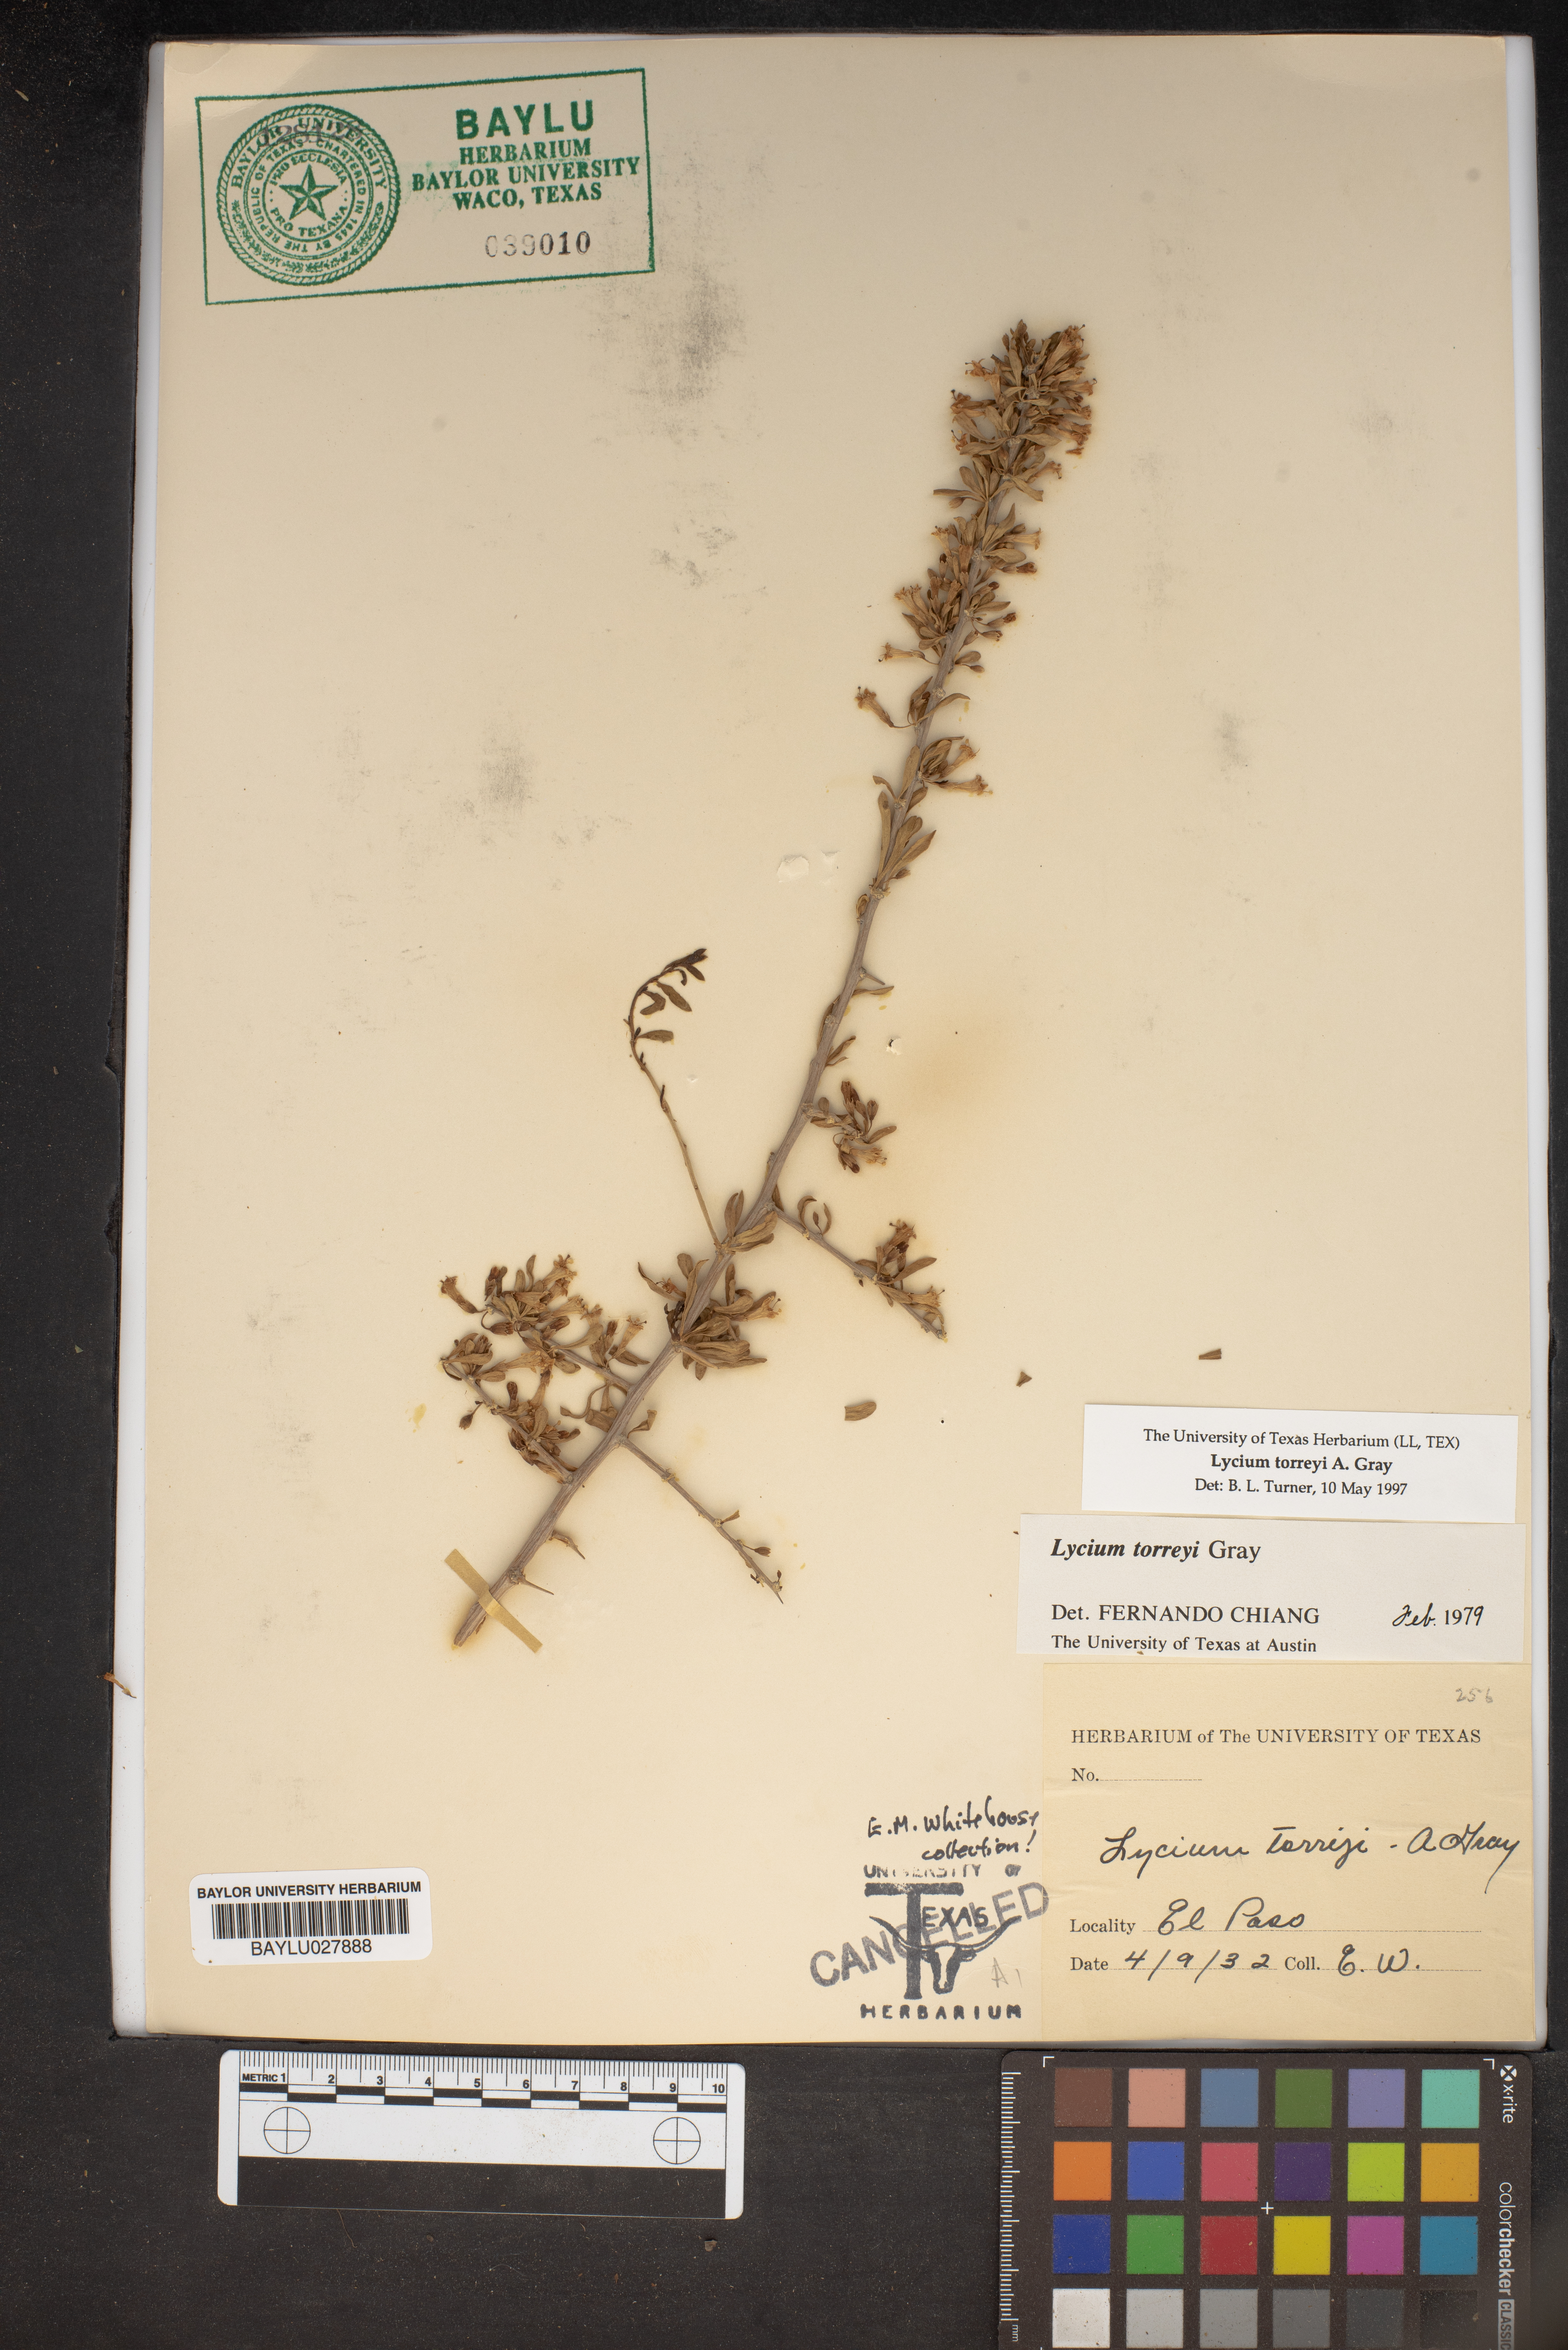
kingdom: Plantae
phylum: Tracheophyta
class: Magnoliopsida
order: Solanales
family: Solanaceae
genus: Lycium
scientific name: Lycium torreyi
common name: Torrey's lycium
